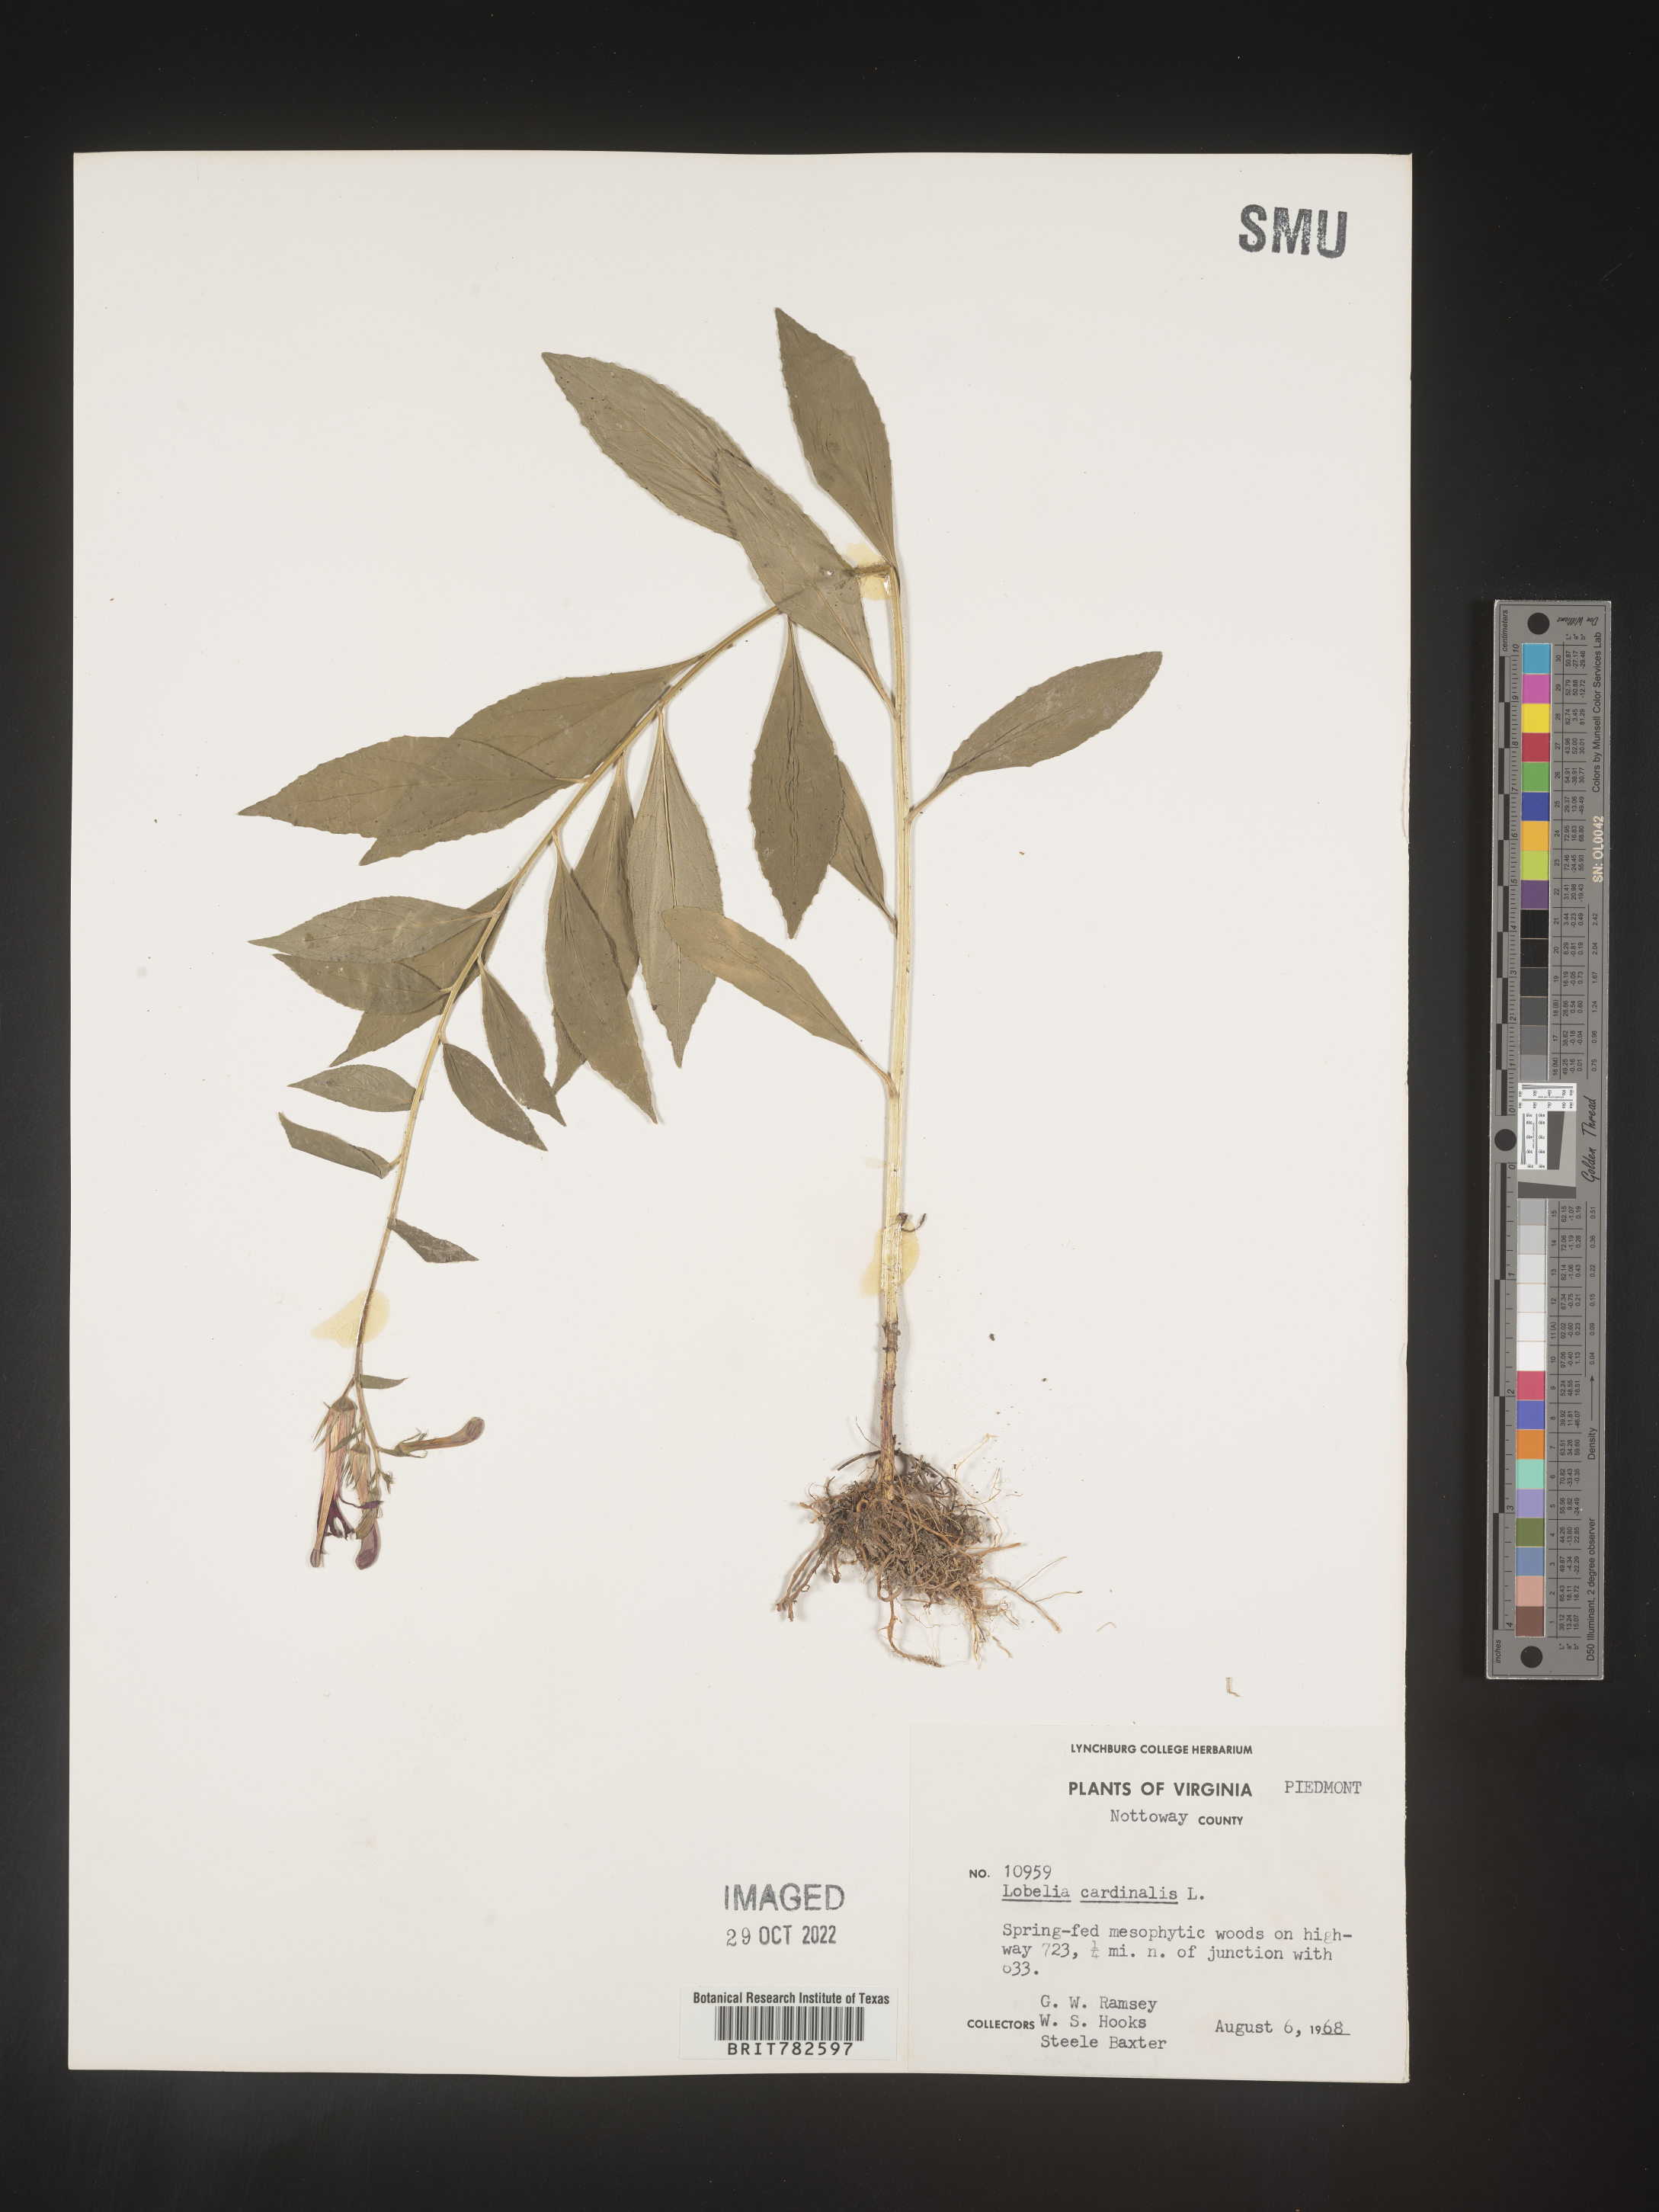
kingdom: Plantae
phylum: Tracheophyta
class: Magnoliopsida
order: Asterales
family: Campanulaceae
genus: Lobelia
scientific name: Lobelia cardinalis
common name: Cardinal flower
